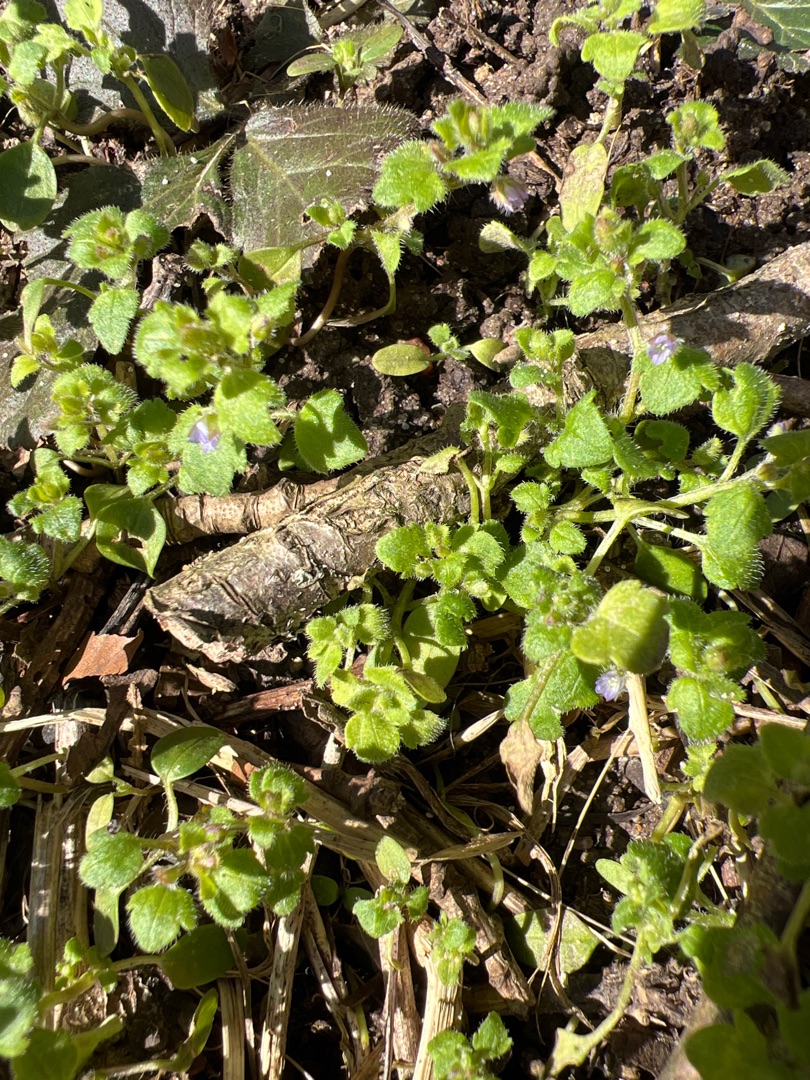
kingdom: Plantae
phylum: Tracheophyta
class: Magnoliopsida
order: Lamiales
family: Plantaginaceae
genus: Veronica
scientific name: Veronica sublobata
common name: Krat-ærenpris
